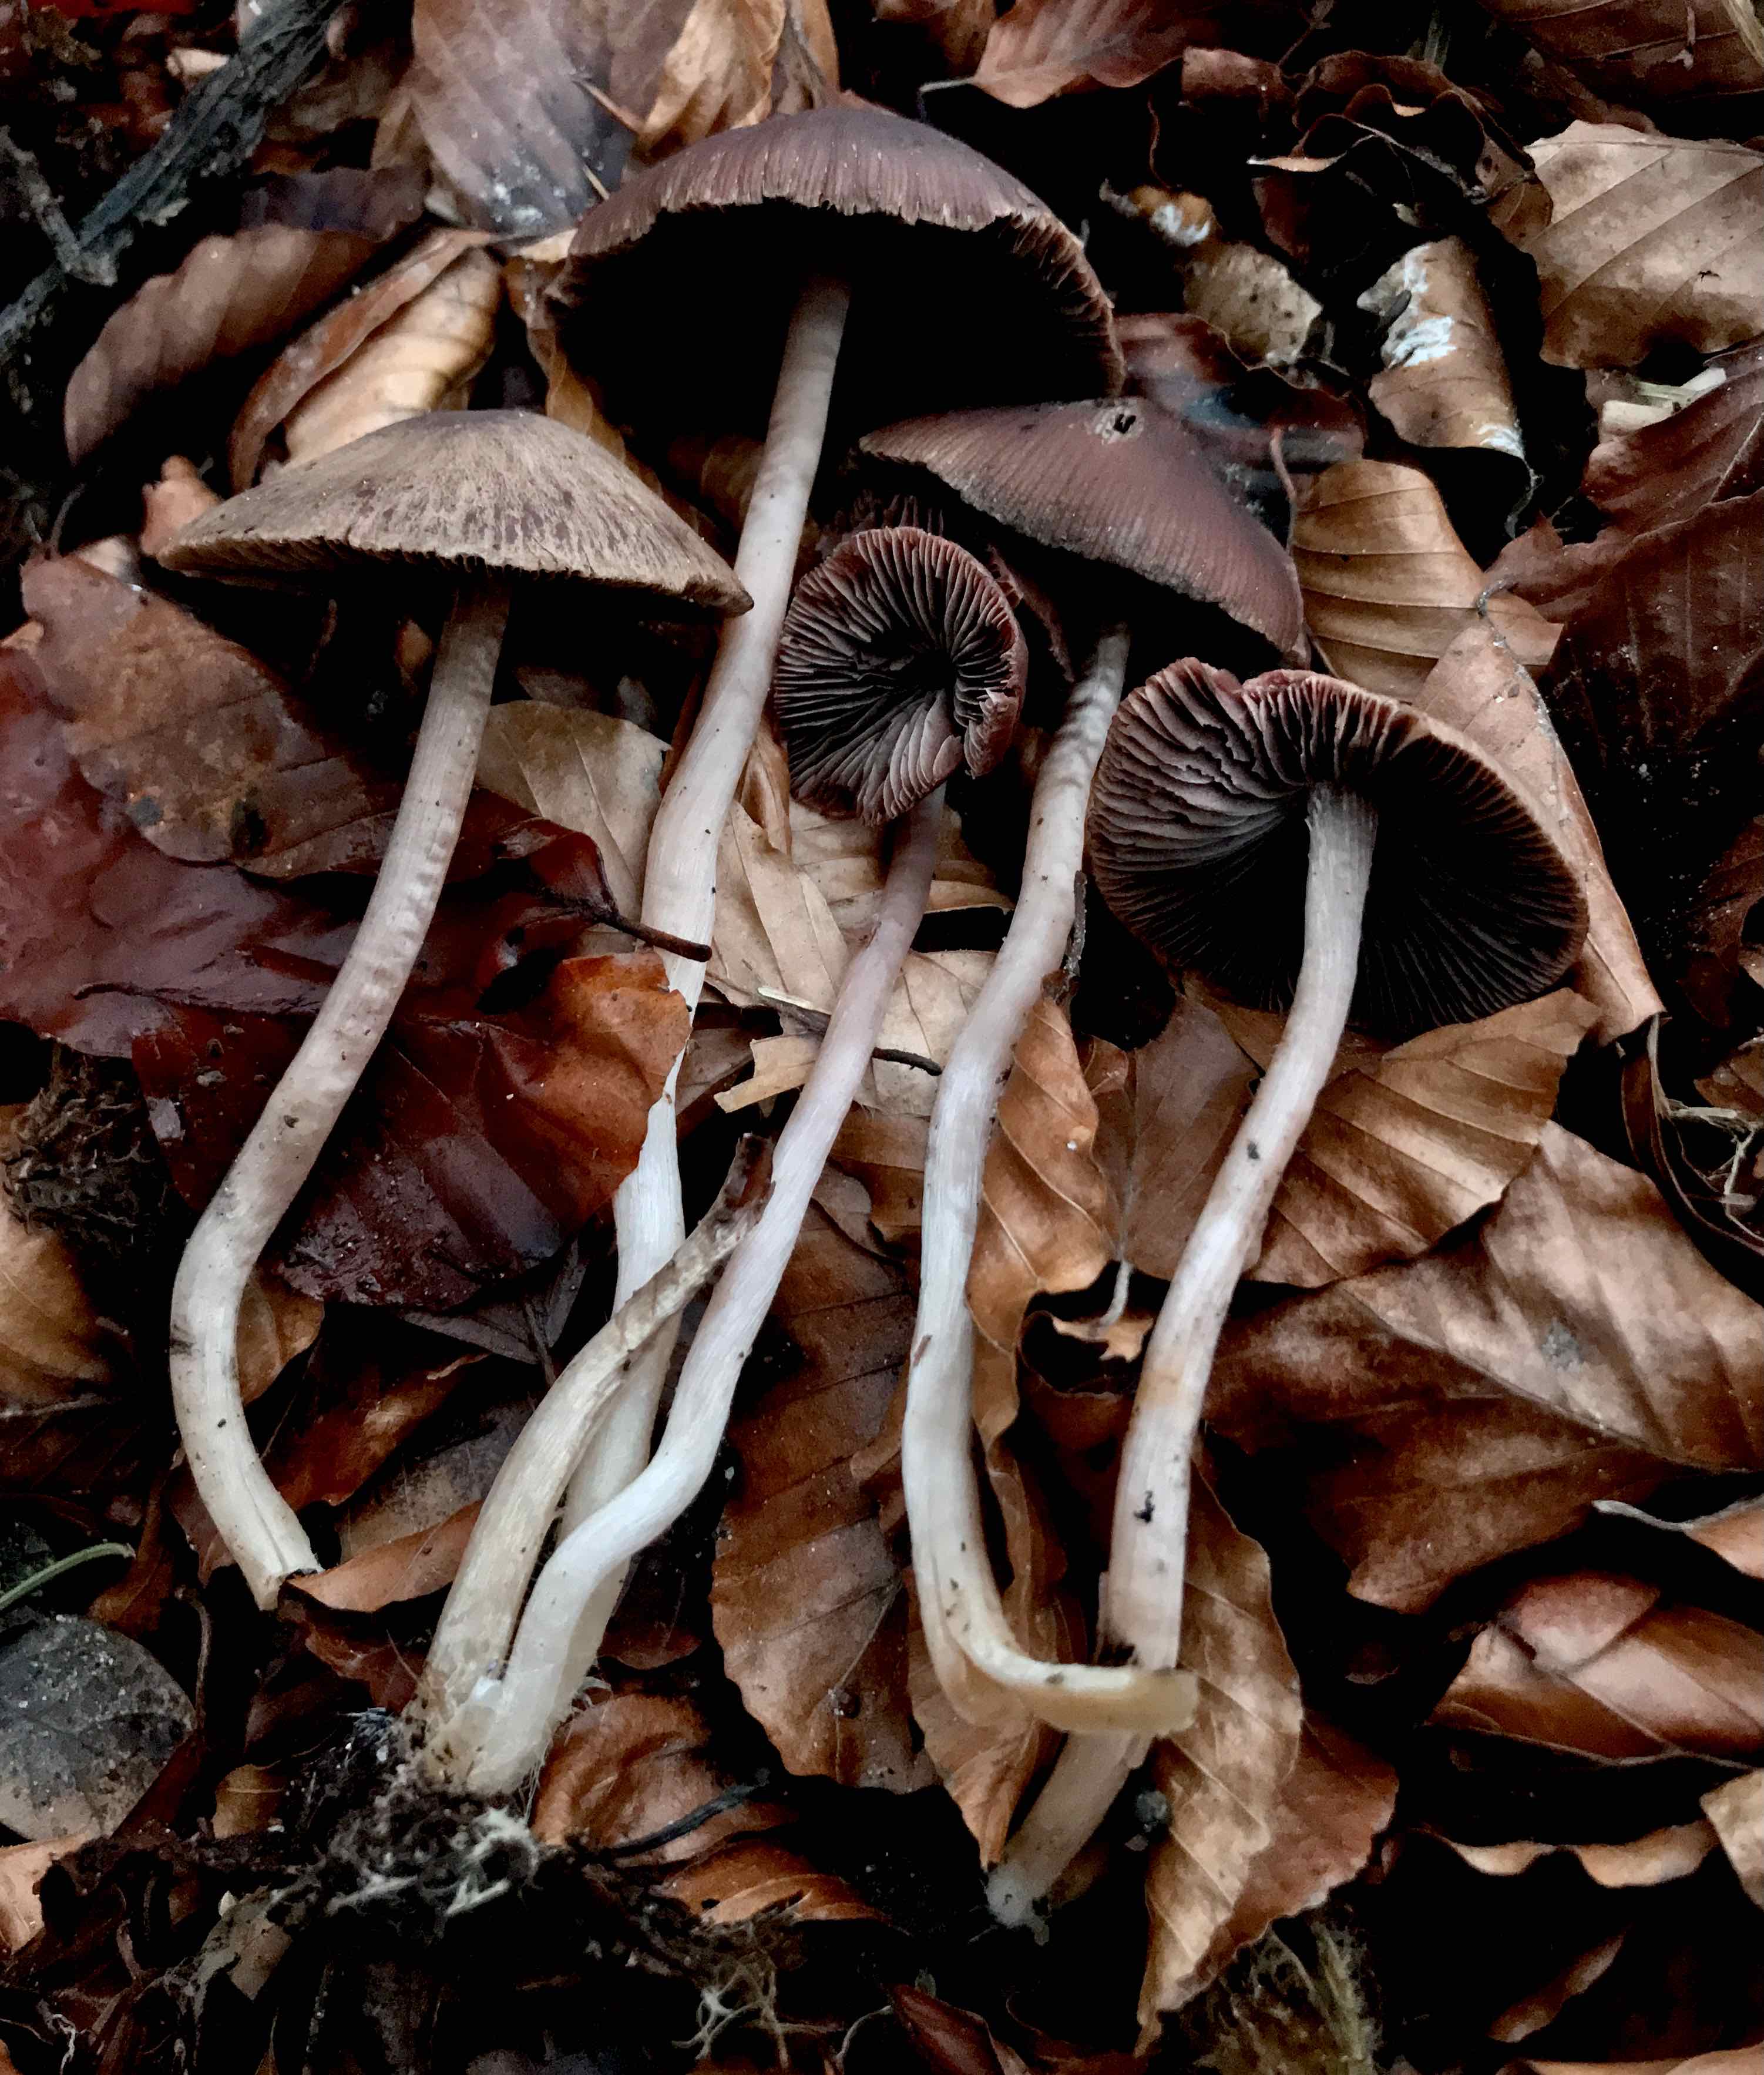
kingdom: Fungi
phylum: Basidiomycota
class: Agaricomycetes
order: Agaricales
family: Psathyrellaceae
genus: Psathyrella
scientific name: Psathyrella bipellis
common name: vinrød mørkhat
